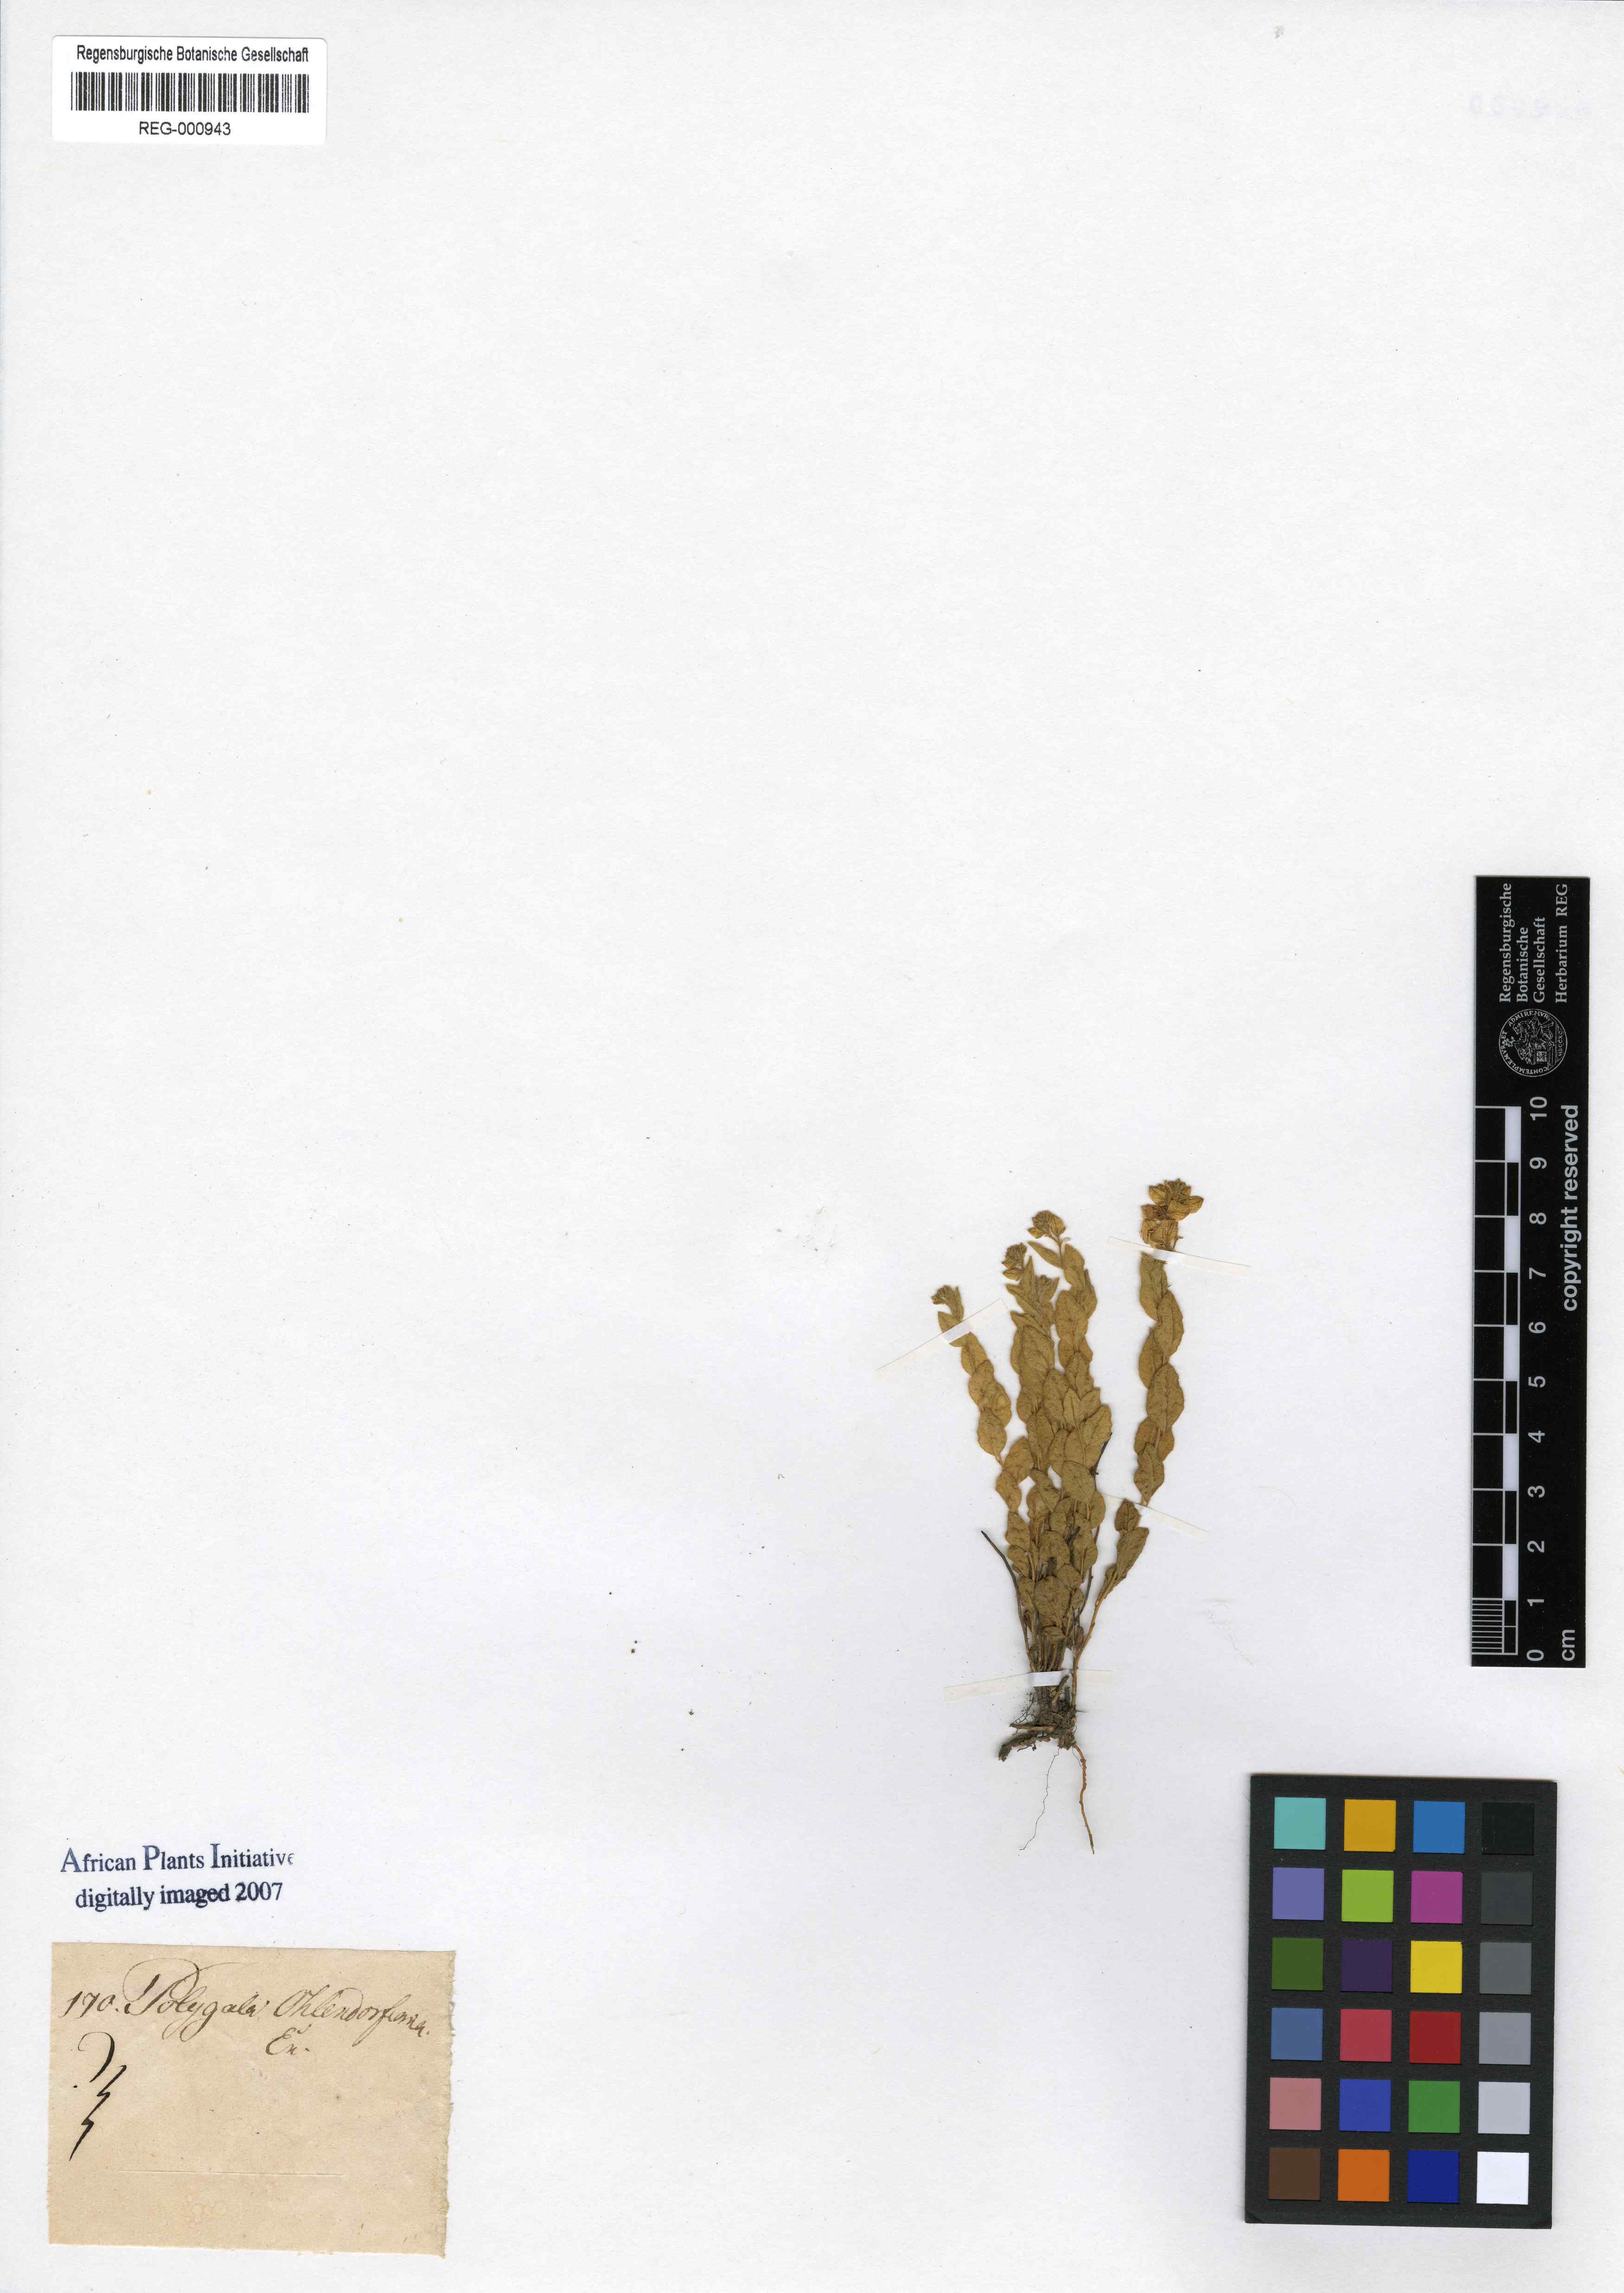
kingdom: Plantae
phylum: Tracheophyta
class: Magnoliopsida
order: Fabales
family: Polygalaceae
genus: Polygala
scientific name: Polygala ohlendorfiana
